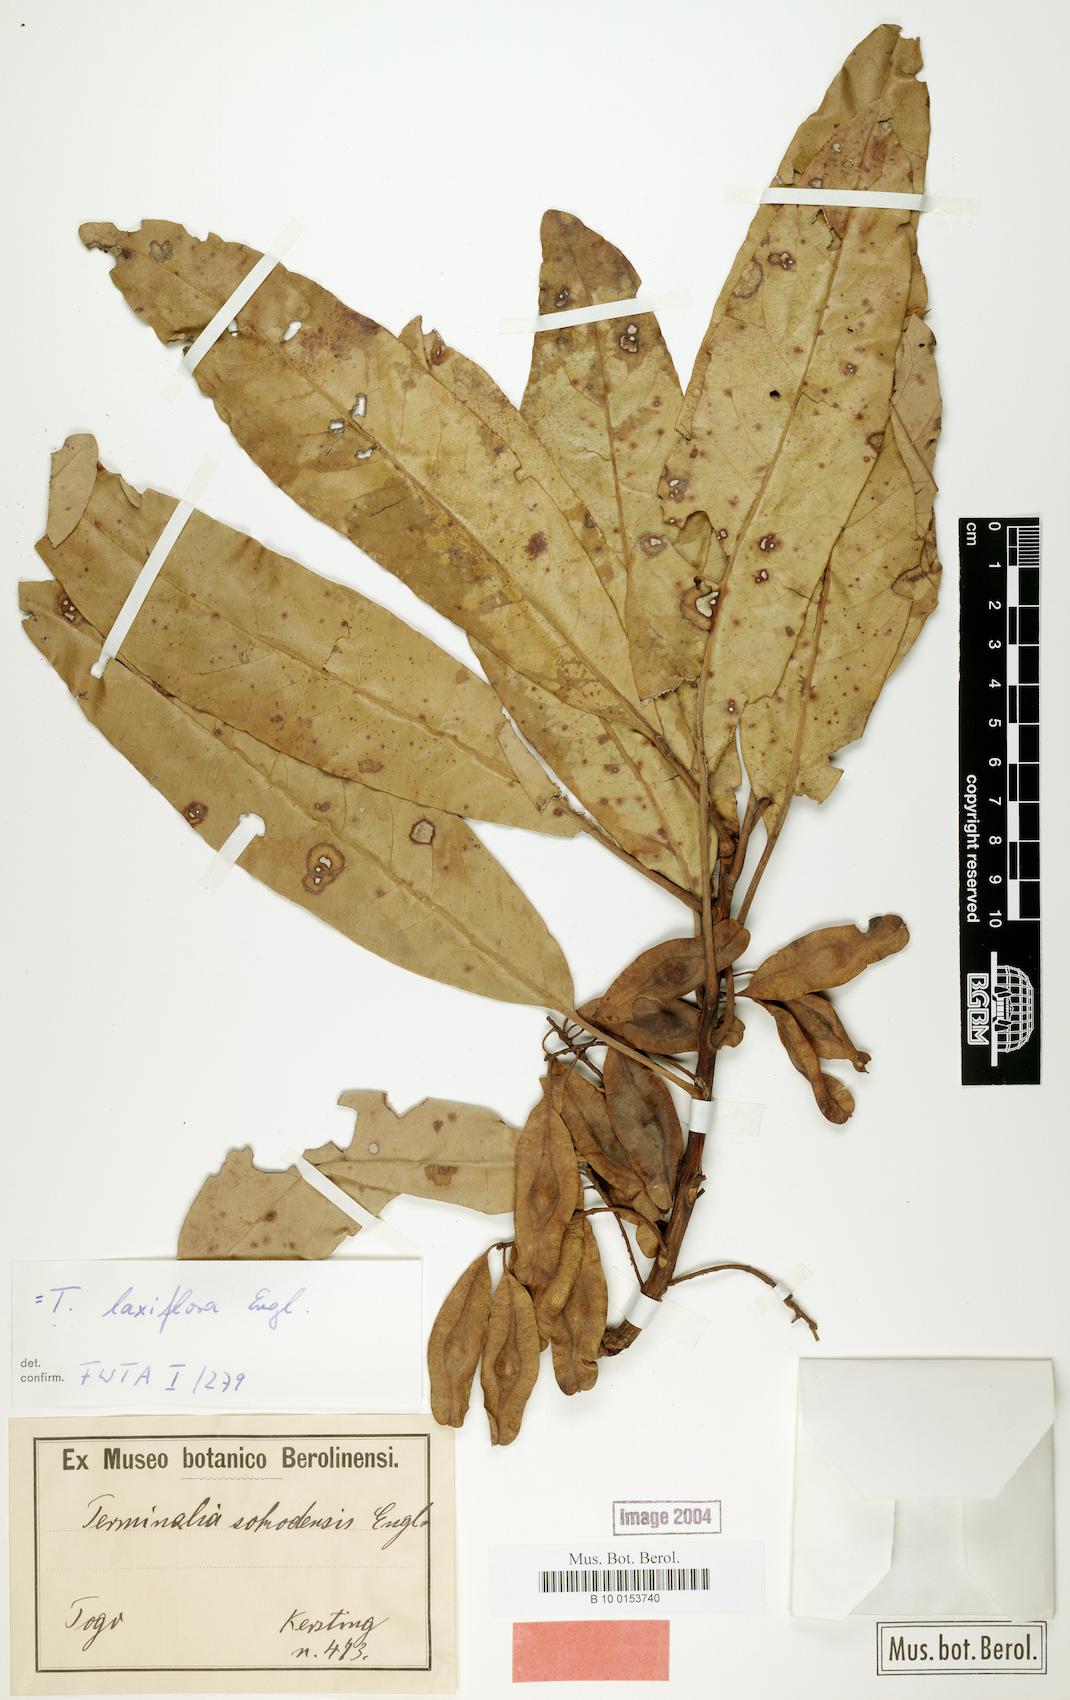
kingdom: Plantae
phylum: Tracheophyta
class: Magnoliopsida
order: Myrtales
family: Combretaceae
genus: Terminalia
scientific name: Terminalia laxiflora
